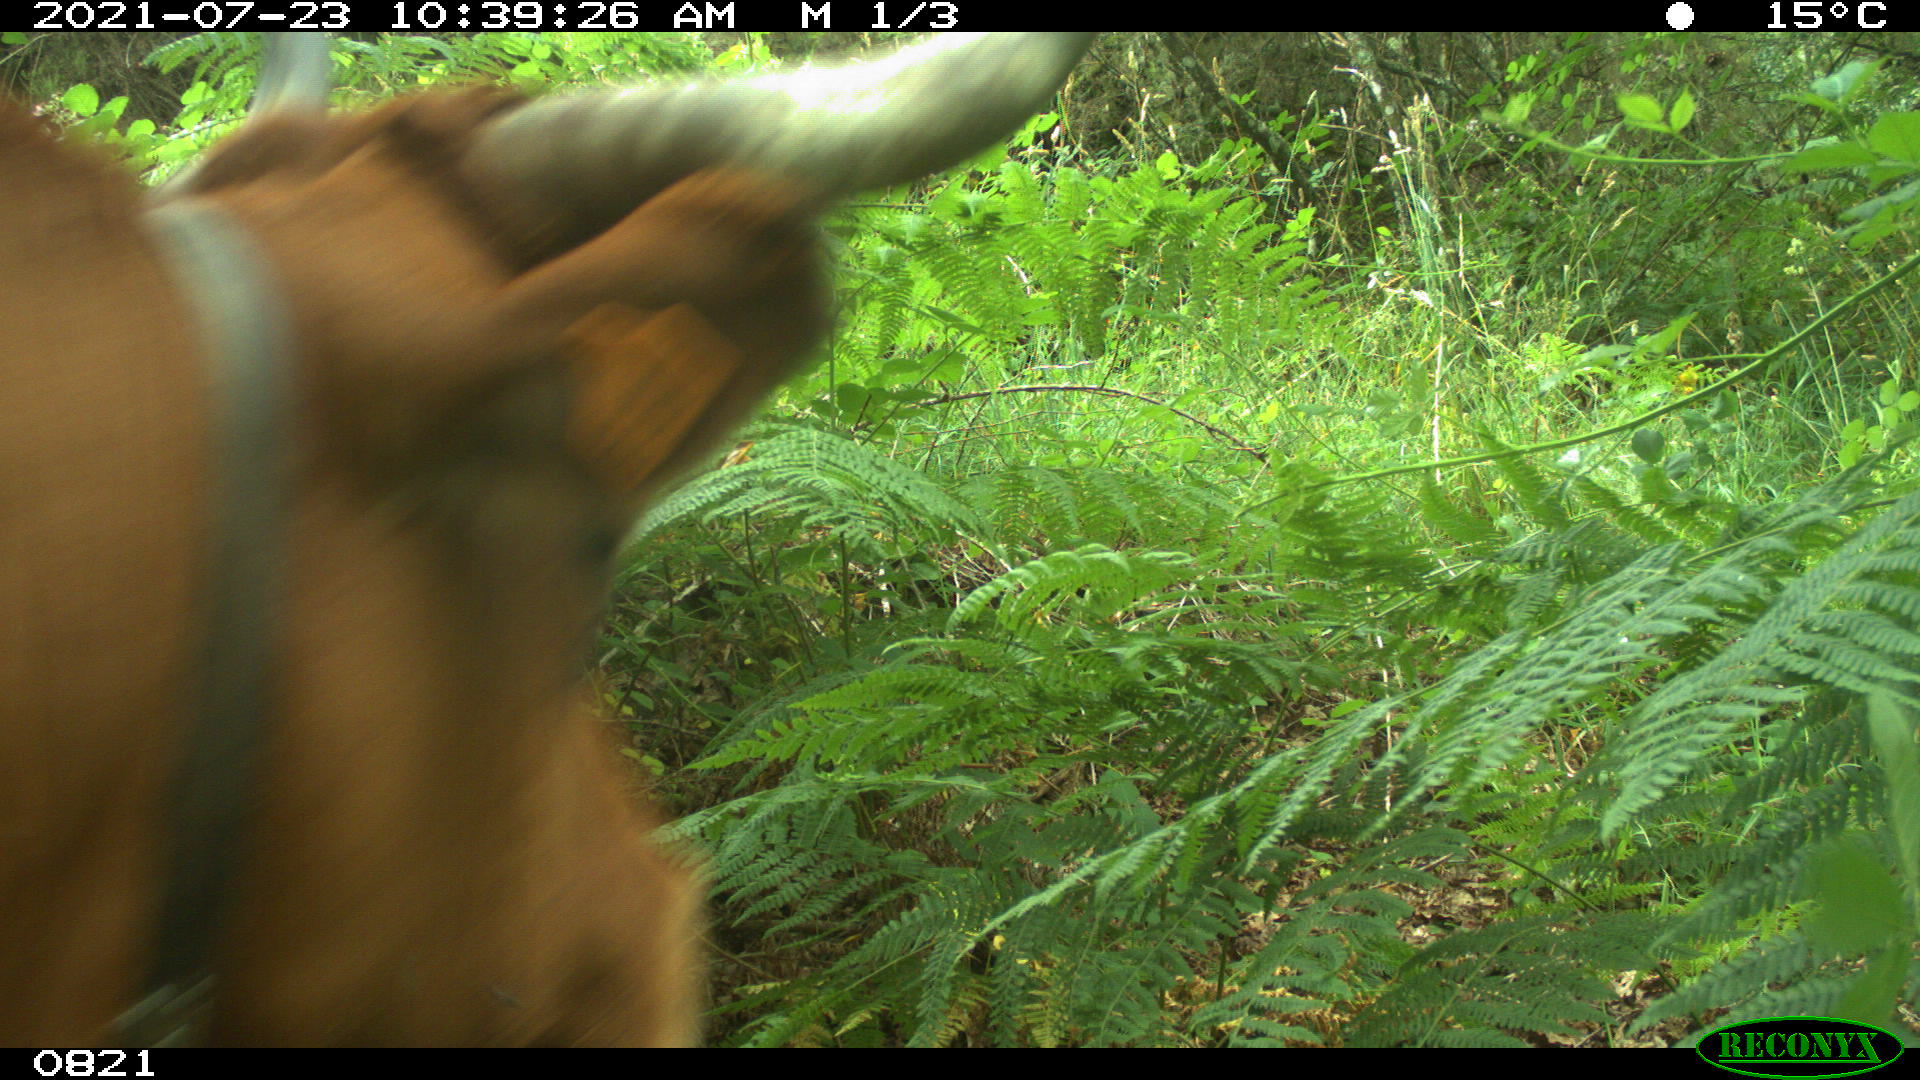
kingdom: Animalia
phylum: Chordata
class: Mammalia
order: Artiodactyla
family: Bovidae
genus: Bos
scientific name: Bos taurus
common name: Domesticated cattle
